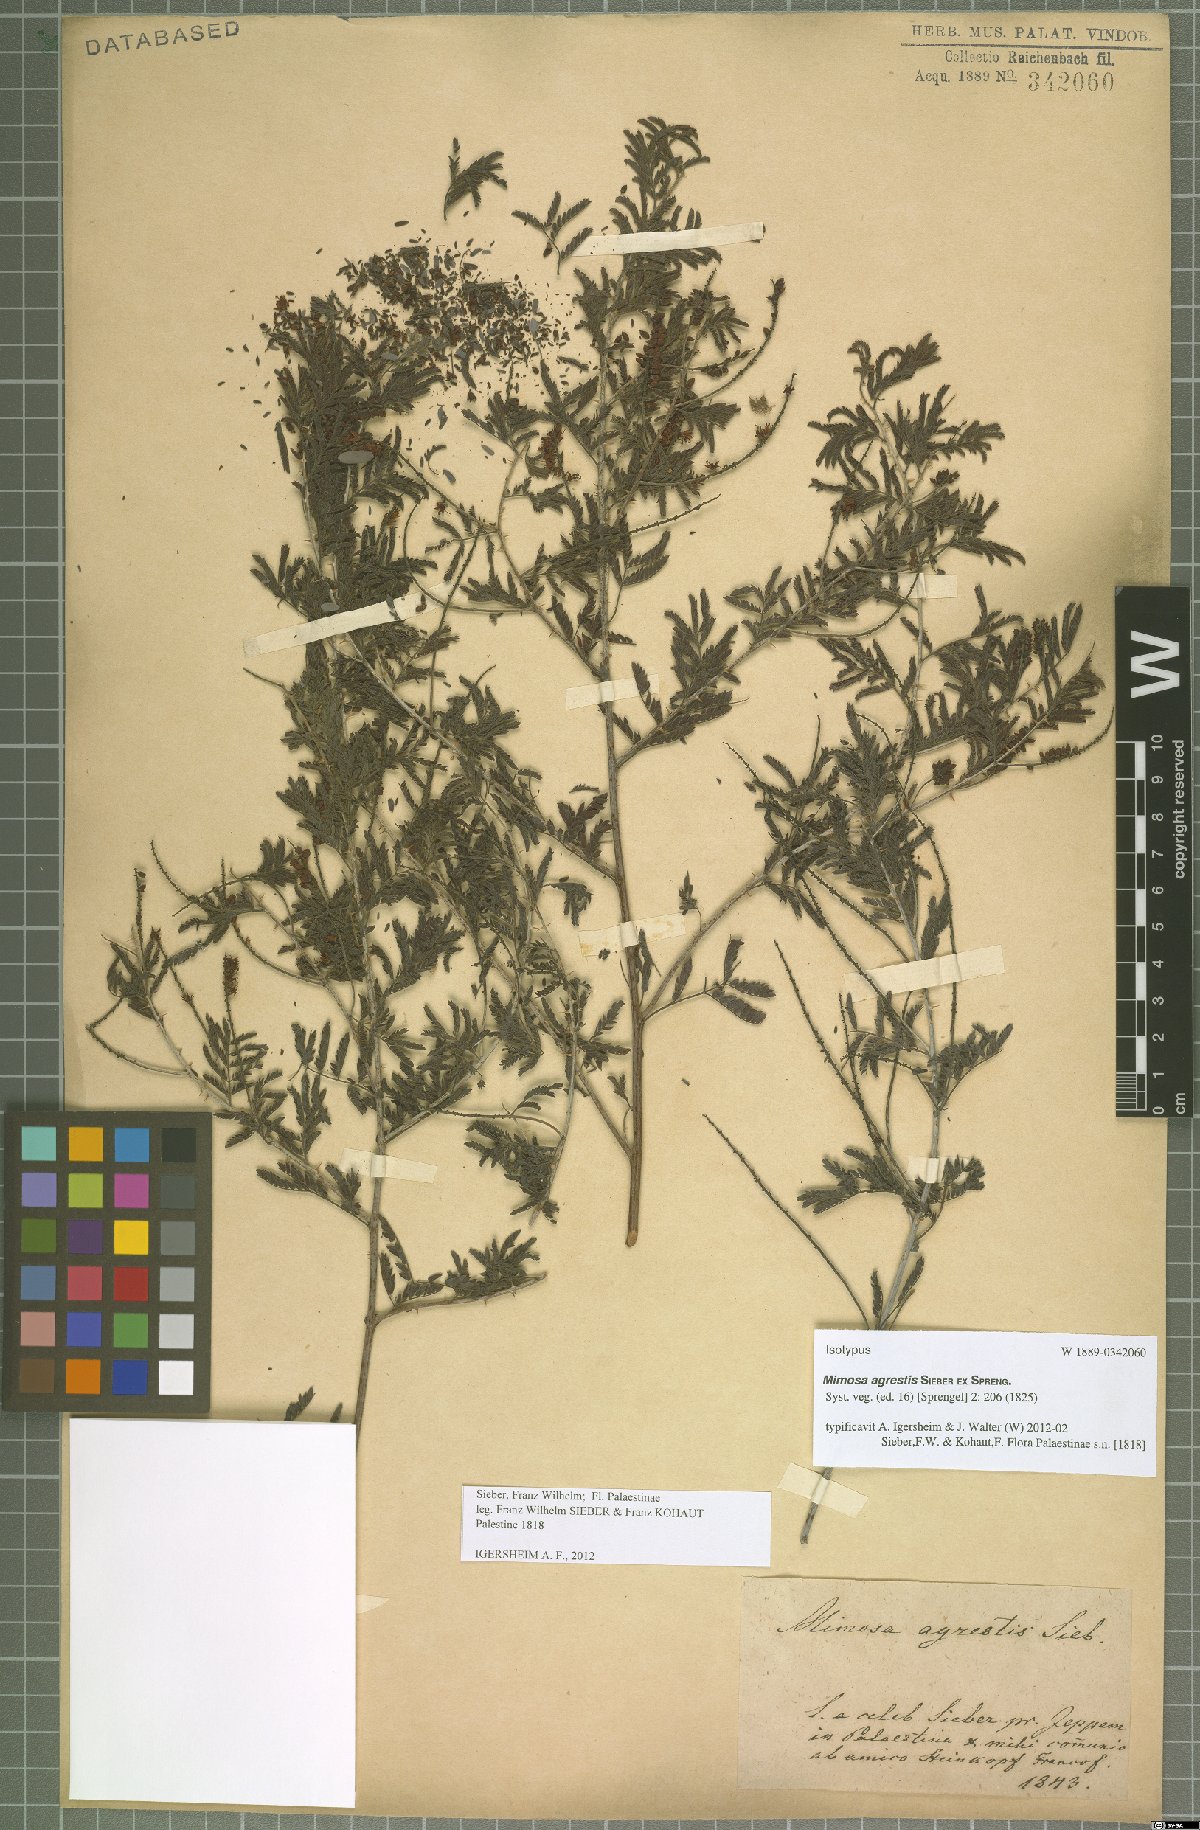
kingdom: Plantae
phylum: Tracheophyta
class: Magnoliopsida
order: Fabales
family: Fabaceae
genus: Prosopis
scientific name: Prosopis farcta
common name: Syrian mesquite
